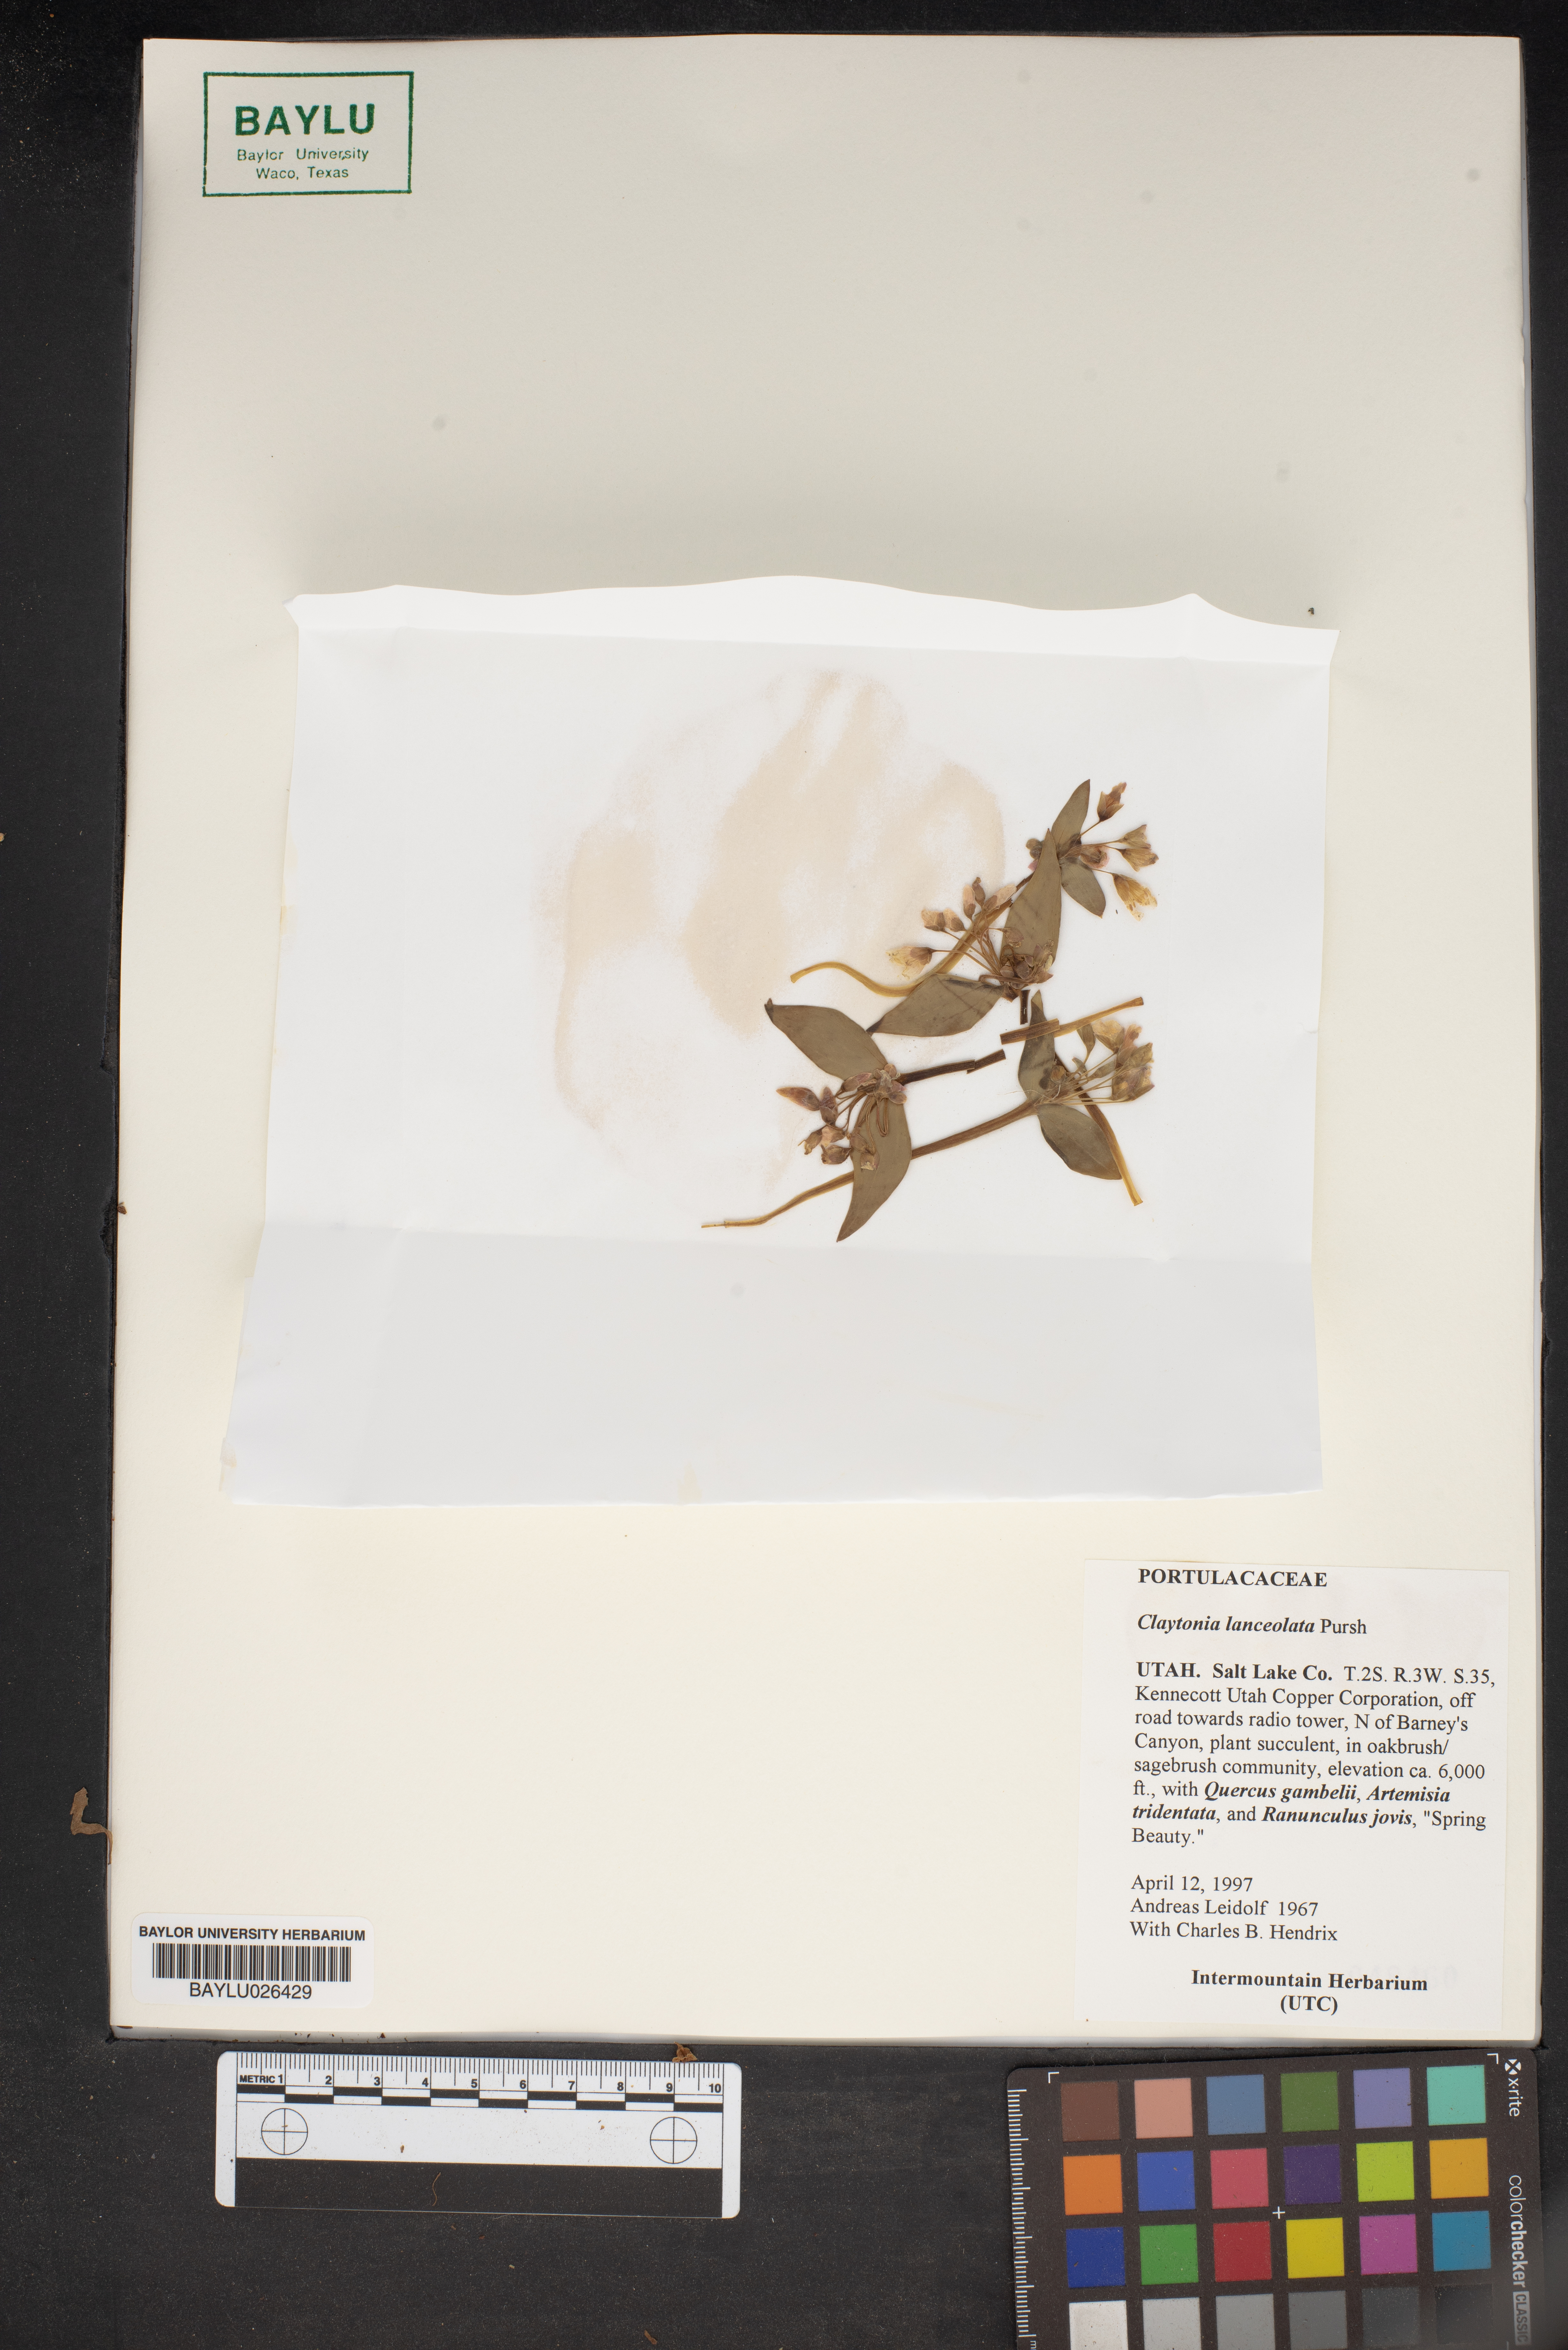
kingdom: Plantae
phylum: Tracheophyta
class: Magnoliopsida
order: Caryophyllales
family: Montiaceae
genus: Claytonia
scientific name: Claytonia lanceolata
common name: Western spring-beauty
